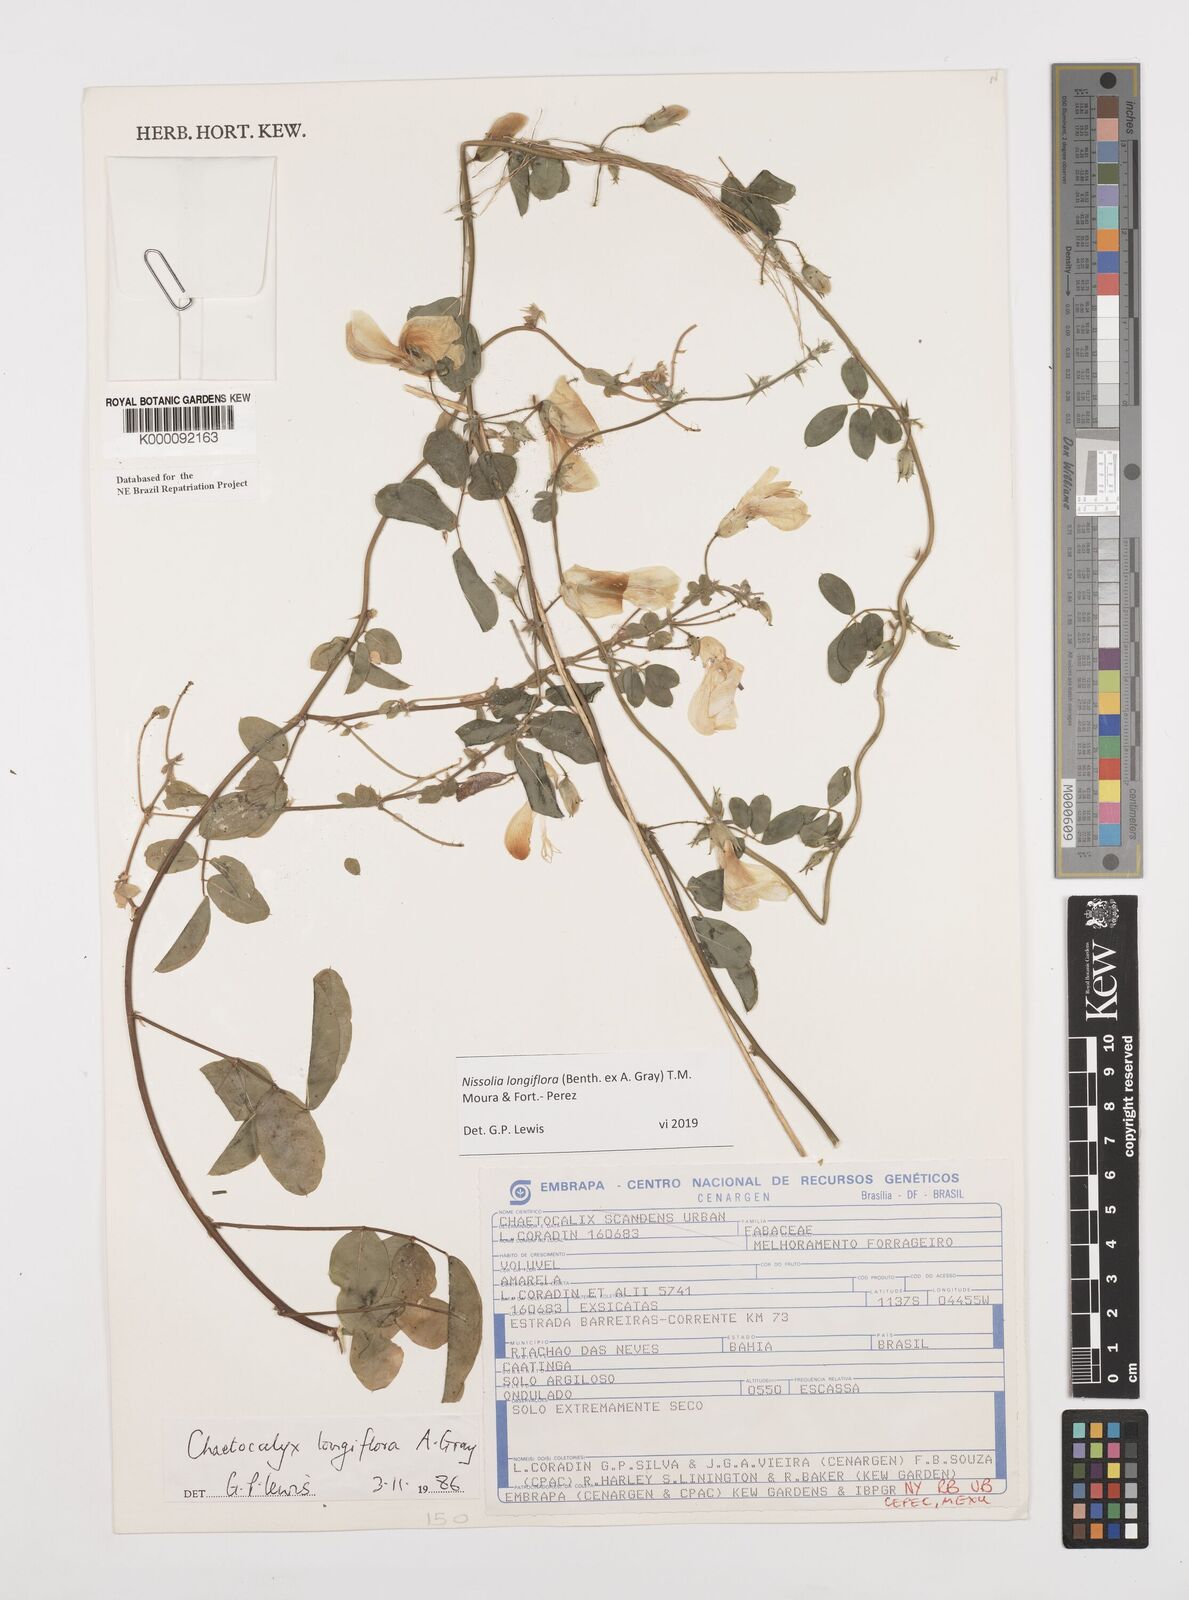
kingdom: Plantae
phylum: Tracheophyta
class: Magnoliopsida
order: Fabales
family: Fabaceae
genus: Nissolia
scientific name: Nissolia longiflora
